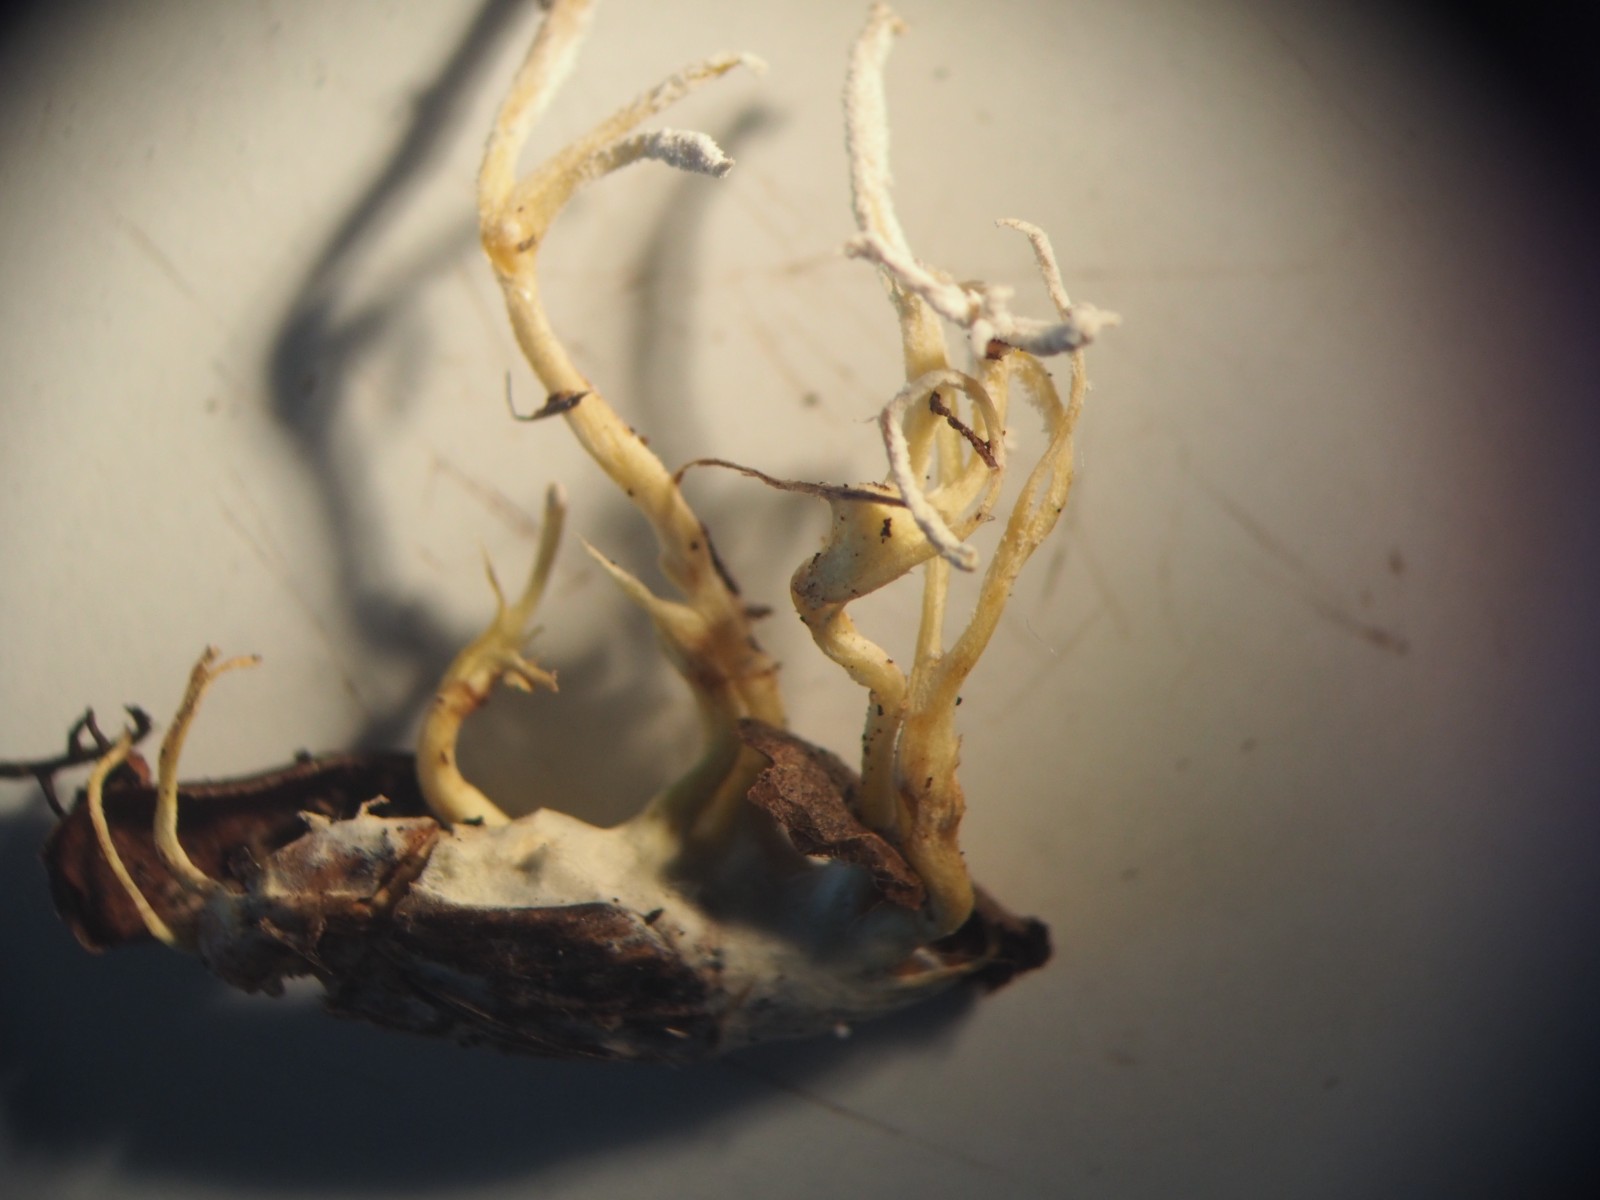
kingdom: Fungi
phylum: Ascomycota
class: Sordariomycetes
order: Hypocreales
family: Cordycipitaceae
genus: Cordyceps
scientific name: Cordyceps tenuipes
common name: støvende snyltekølle
